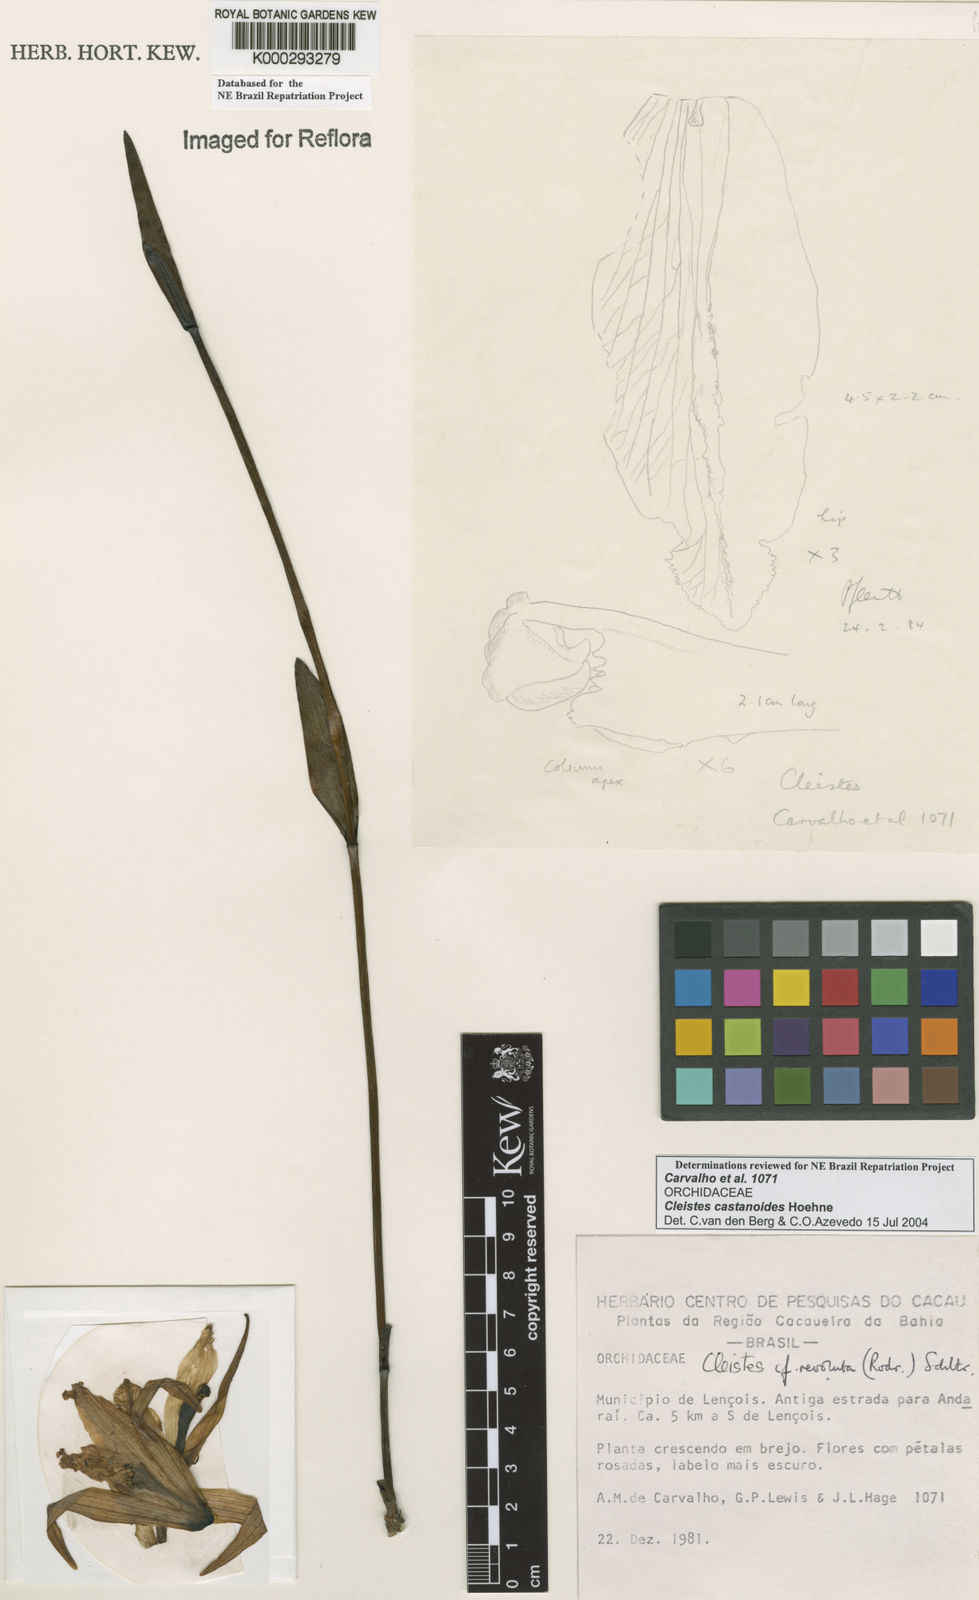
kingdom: Plantae
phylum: Tracheophyta
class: Liliopsida
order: Asparagales
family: Orchidaceae
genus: Cleistes
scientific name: Cleistes
